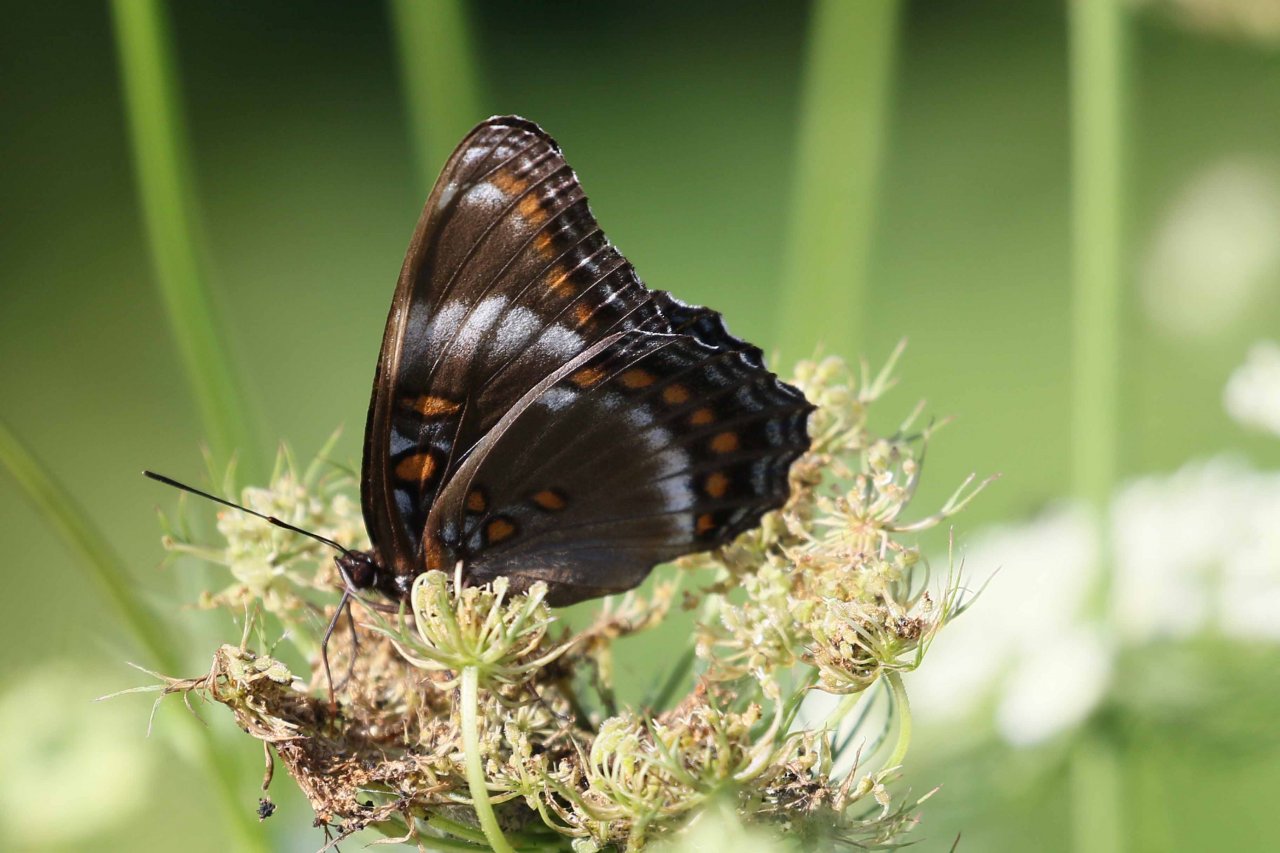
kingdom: Animalia
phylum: Arthropoda
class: Insecta
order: Lepidoptera
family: Nymphalidae
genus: Limenitis
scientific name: Limenitis
